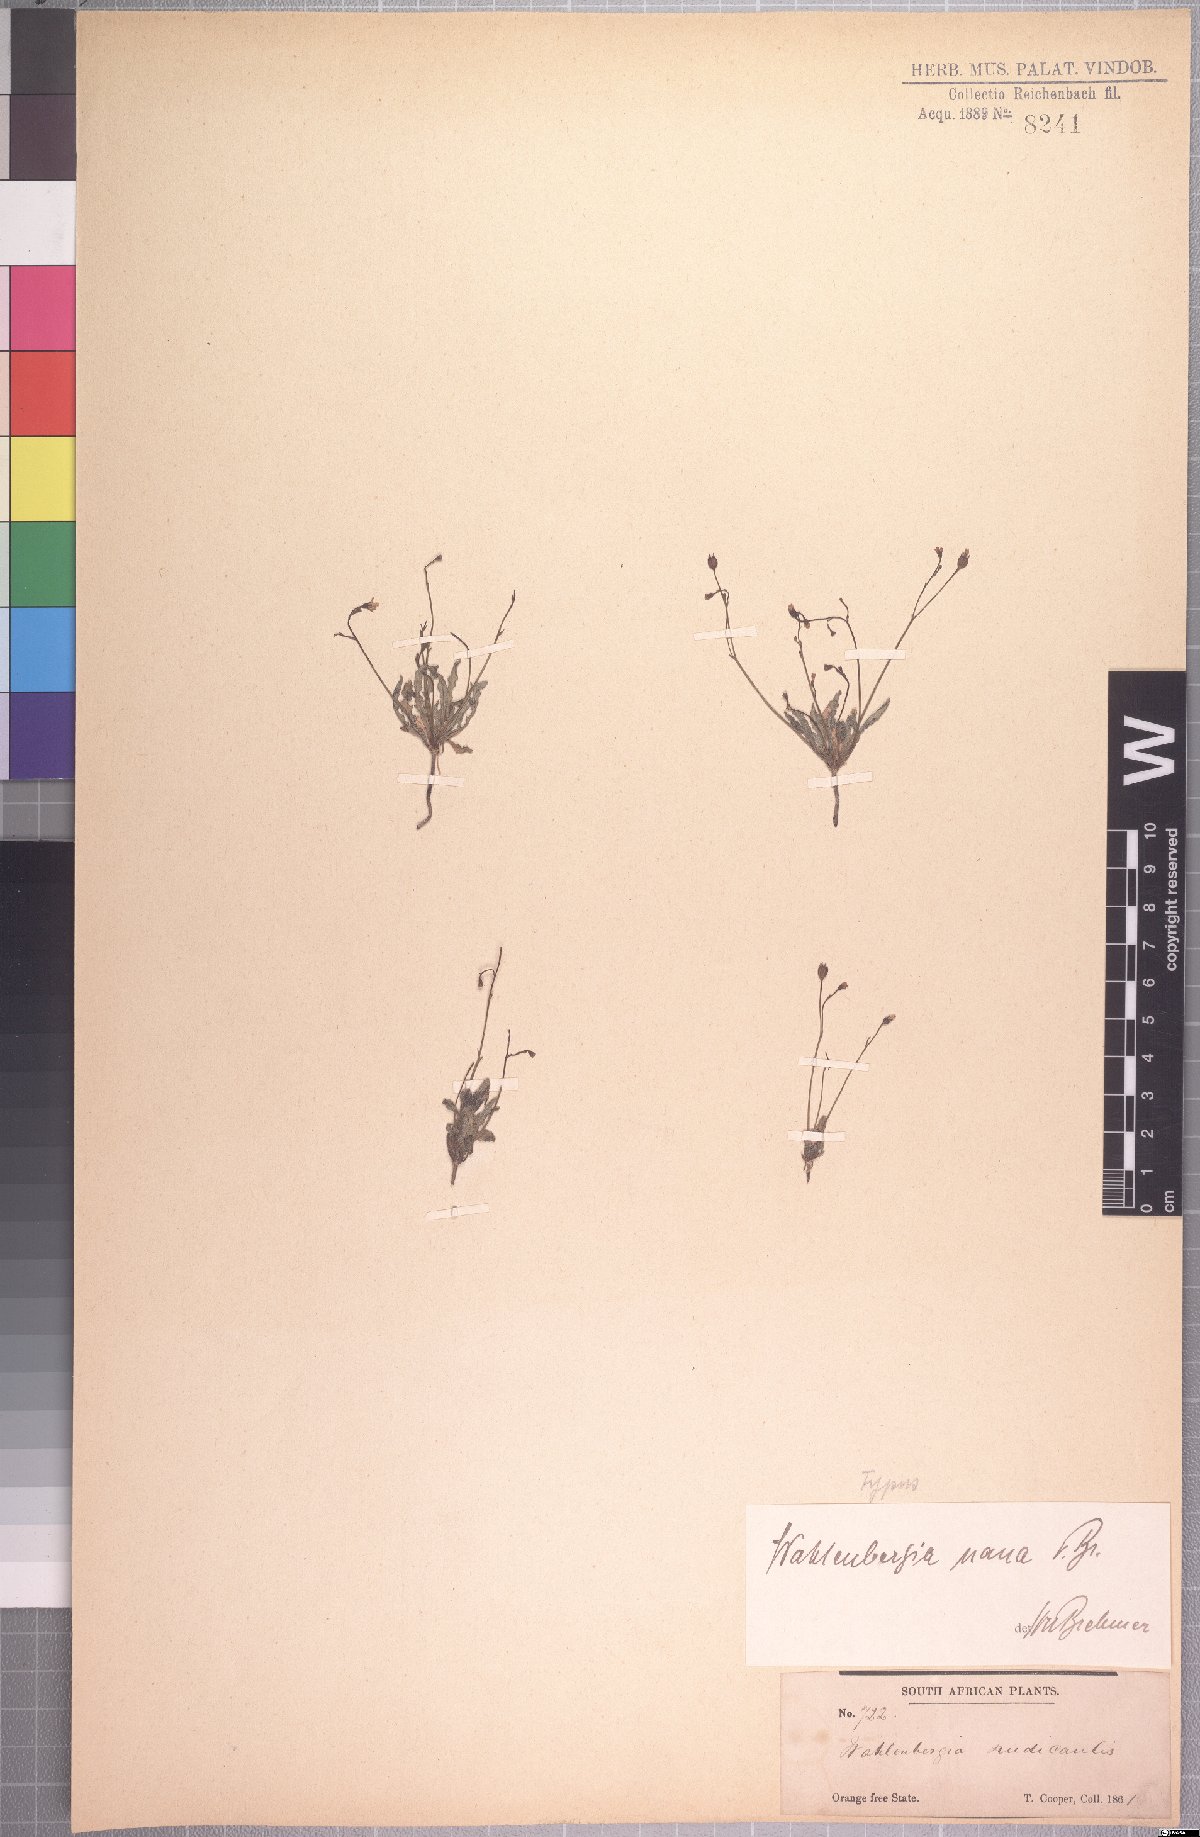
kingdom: Plantae
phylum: Tracheophyta
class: Magnoliopsida
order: Asterales
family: Campanulaceae
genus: Wahlenbergia
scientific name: Wahlenbergia nana
